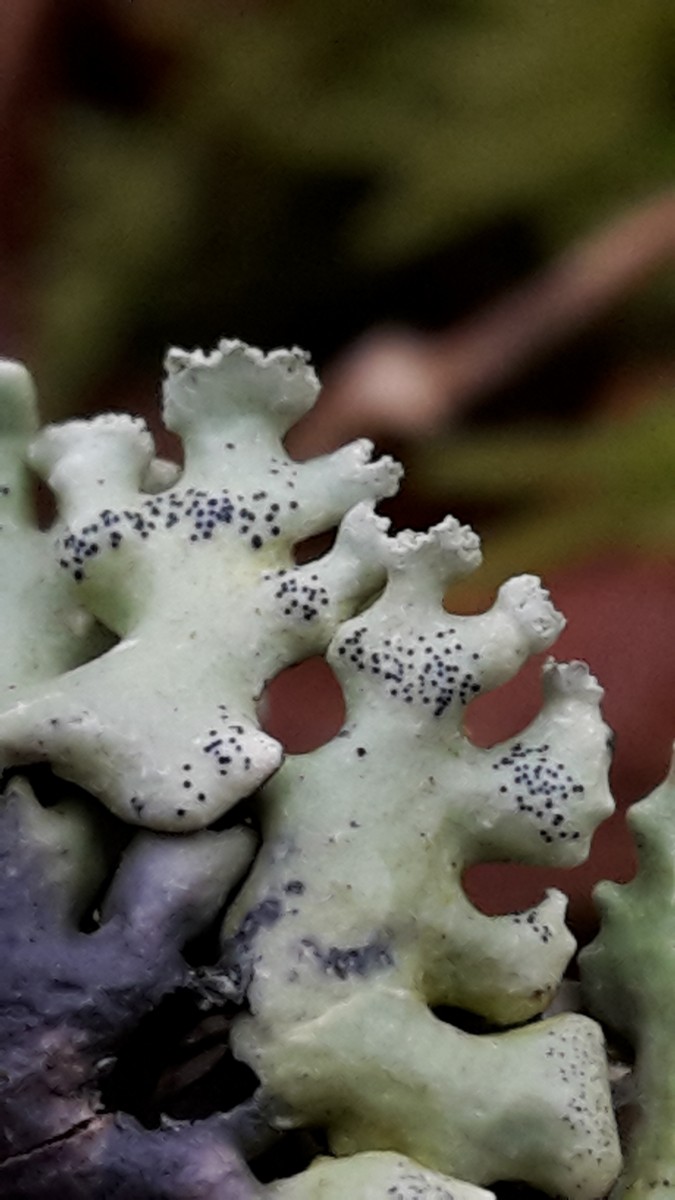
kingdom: Fungi
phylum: Ascomycota
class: Lecanoromycetes
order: Lecanorales
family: Parmeliaceae
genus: Hypogymnia
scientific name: Hypogymnia physodes
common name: almindelig kvistlav
